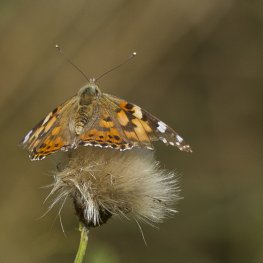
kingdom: Animalia
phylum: Arthropoda
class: Insecta
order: Lepidoptera
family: Nymphalidae
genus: Vanessa
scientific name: Vanessa cardui
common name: Painted Lady
